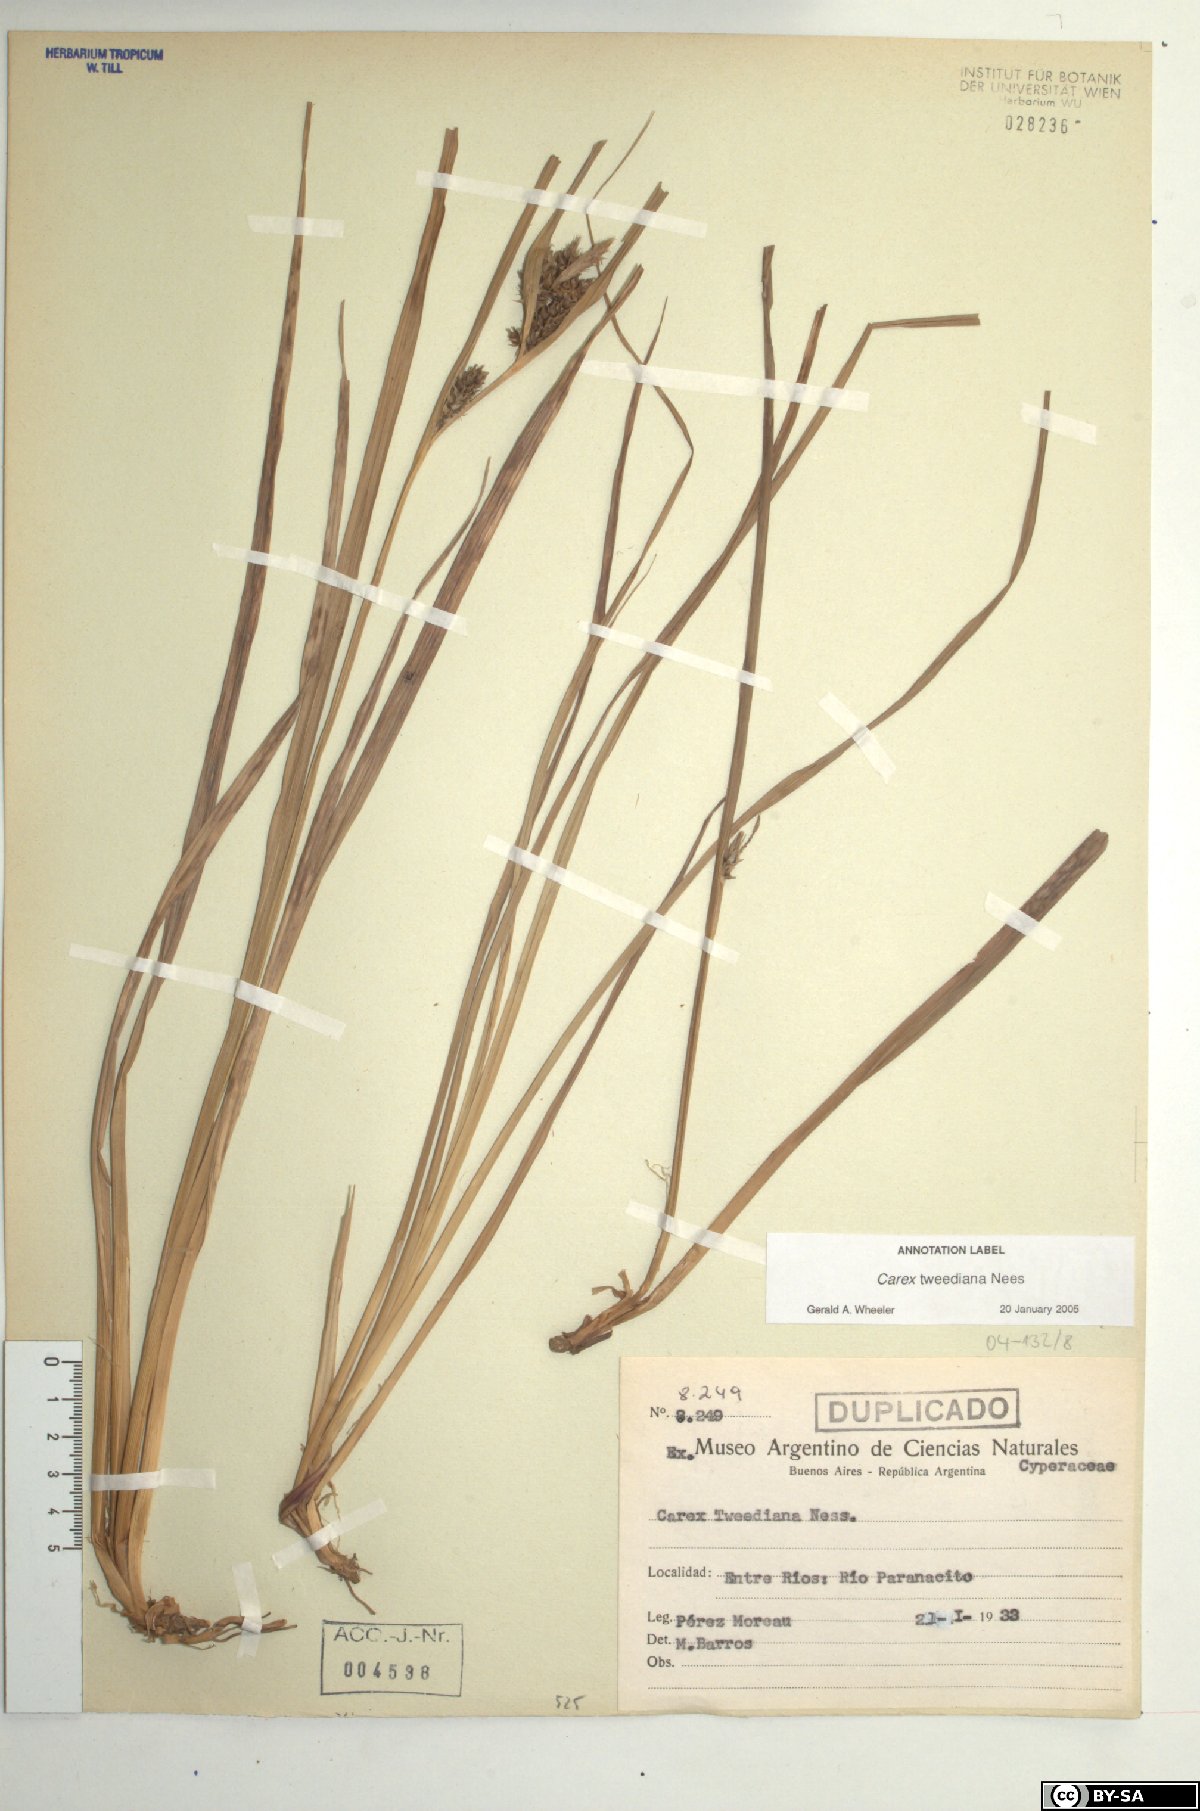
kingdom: Plantae
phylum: Tracheophyta
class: Liliopsida
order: Poales
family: Cyperaceae
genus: Carex
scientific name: Carex tweedieana
